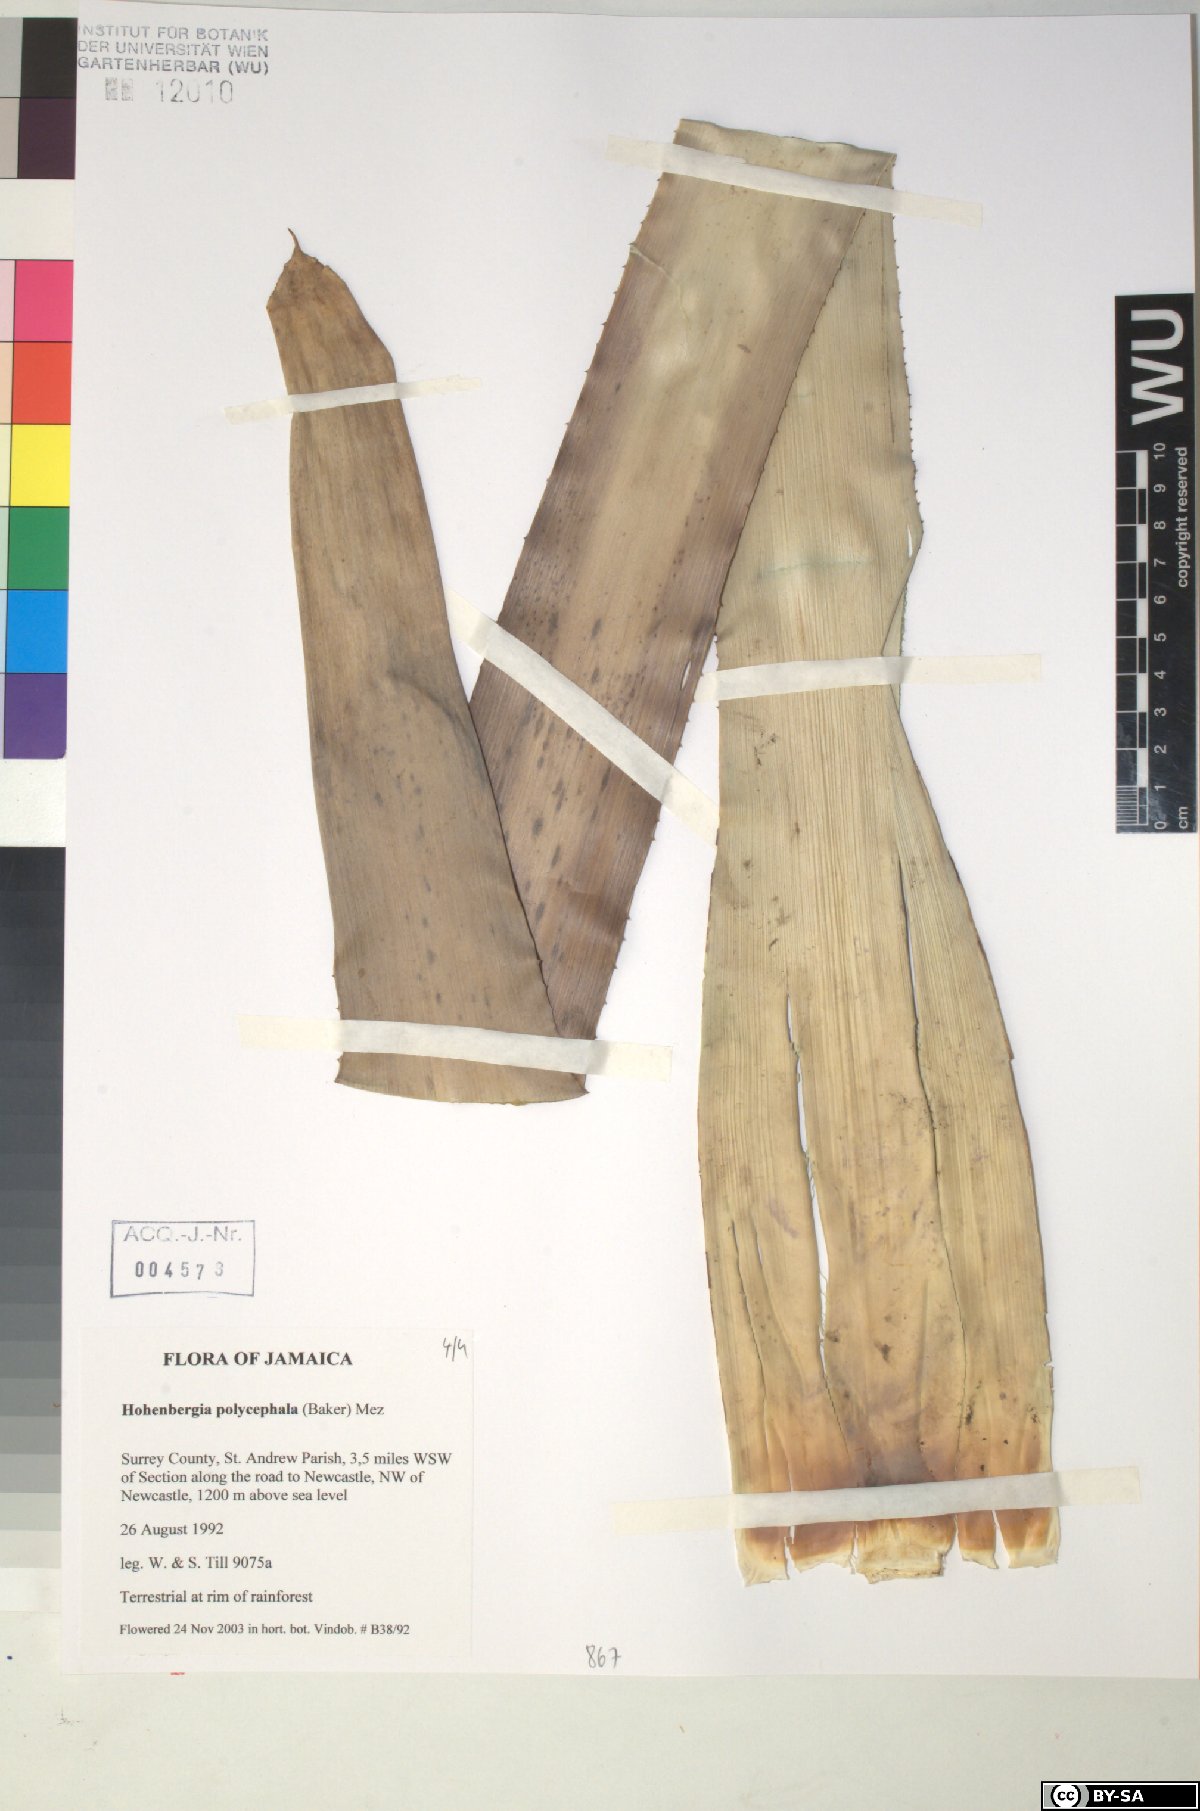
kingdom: Plantae
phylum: Tracheophyta
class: Liliopsida
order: Poales
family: Bromeliaceae
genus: Wittmackia
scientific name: Wittmackia polycephala
